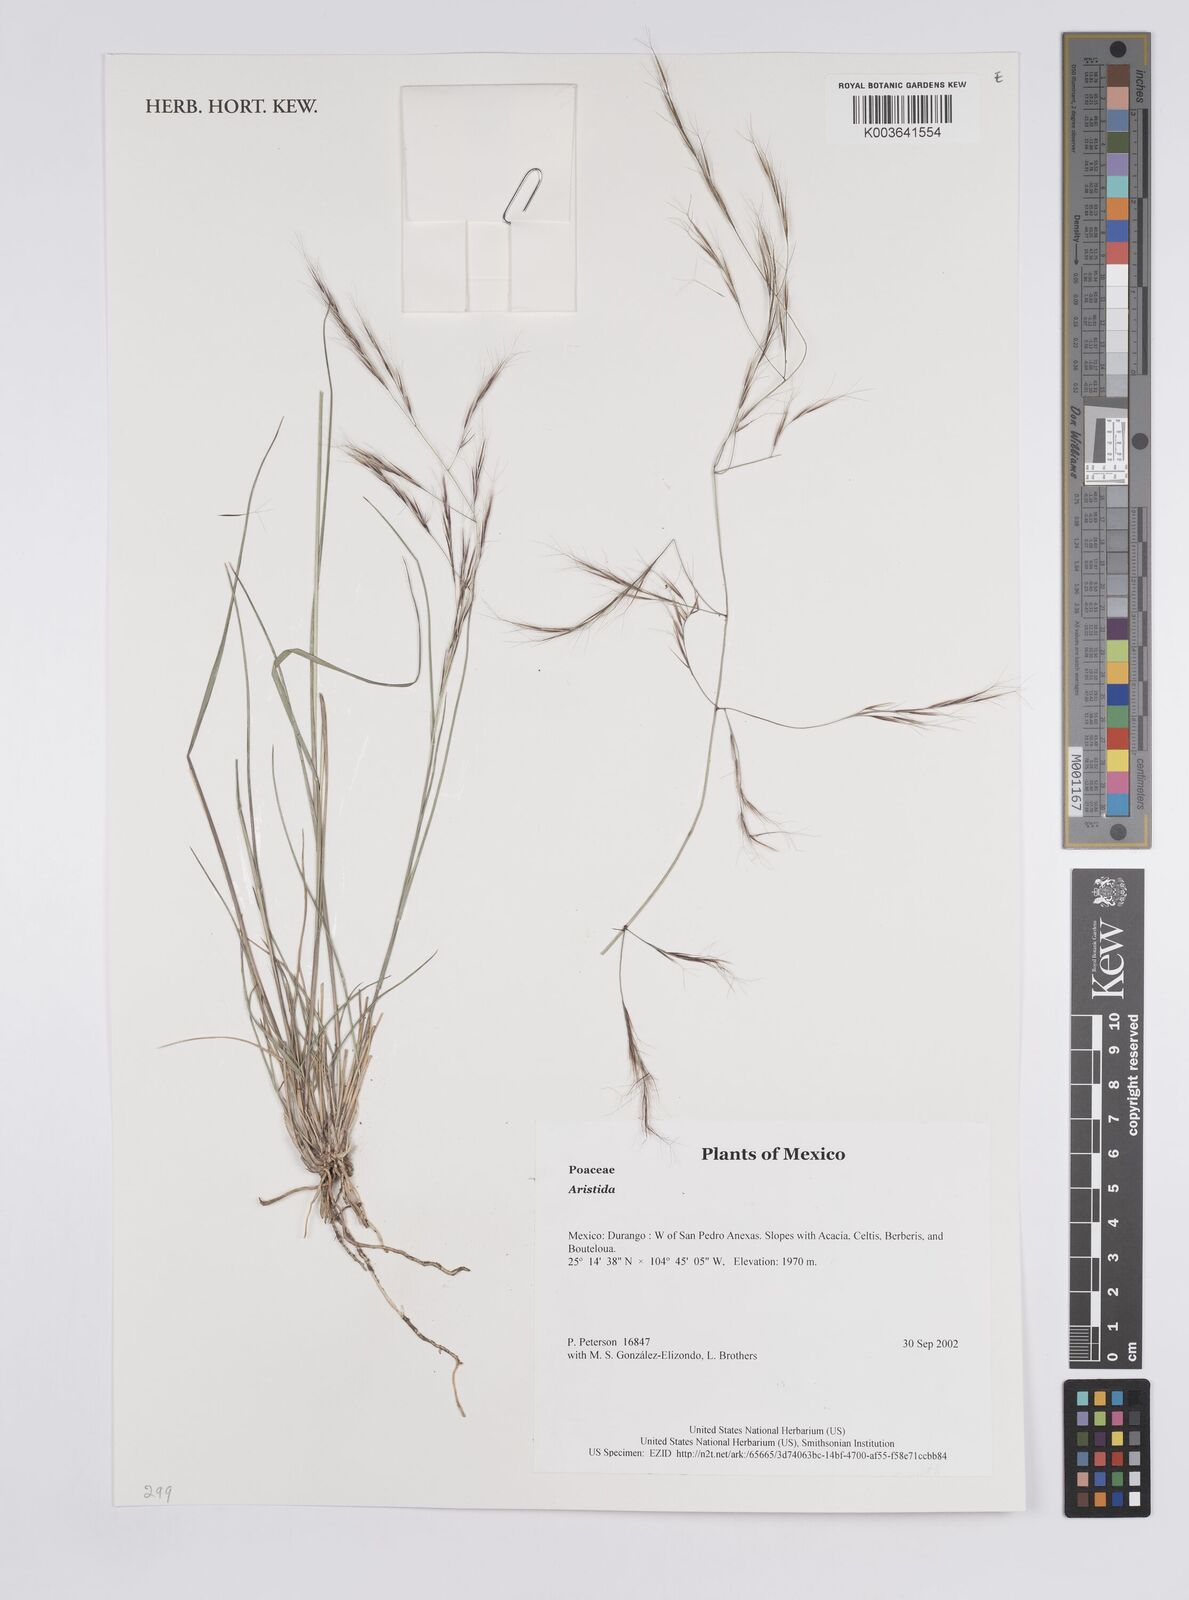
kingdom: Plantae
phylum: Tracheophyta
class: Liliopsida
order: Poales
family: Poaceae
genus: Aristida
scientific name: Aristida
